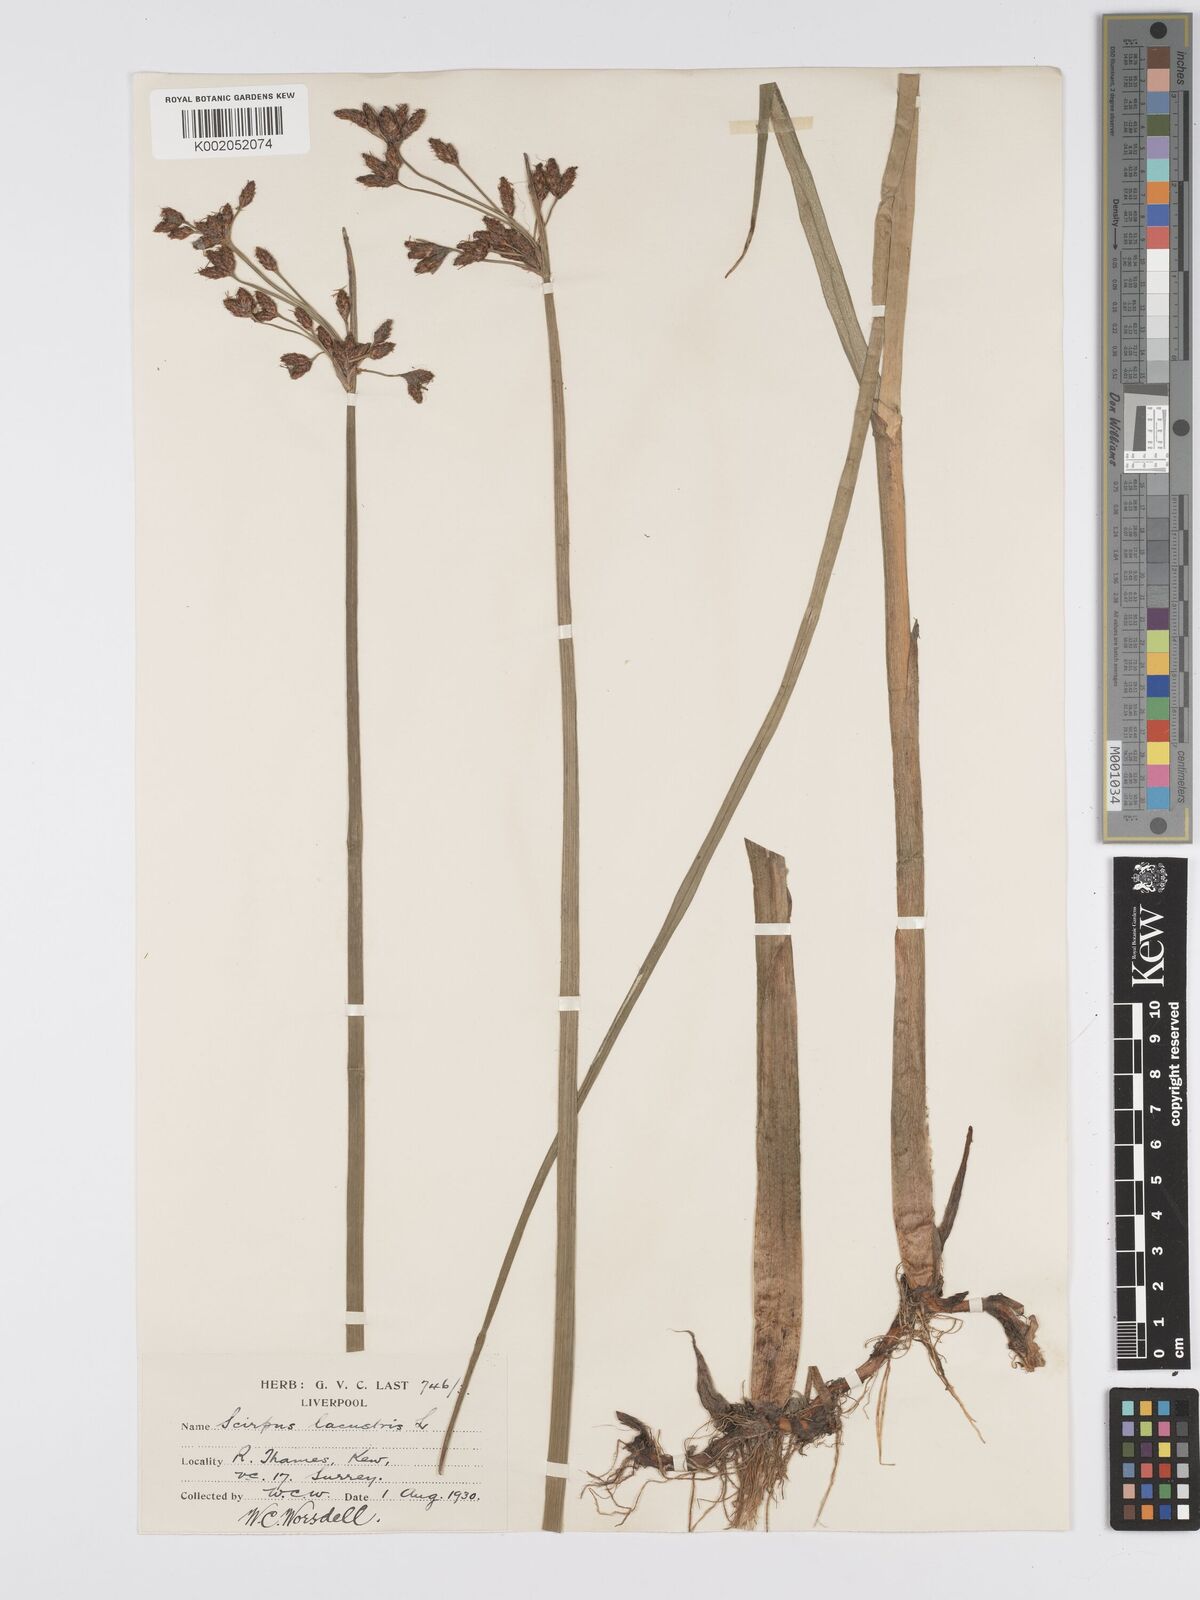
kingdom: Plantae
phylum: Tracheophyta
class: Liliopsida
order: Poales
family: Cyperaceae
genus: Schoenoplectus
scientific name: Schoenoplectus lacustris
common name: Common club-rush
